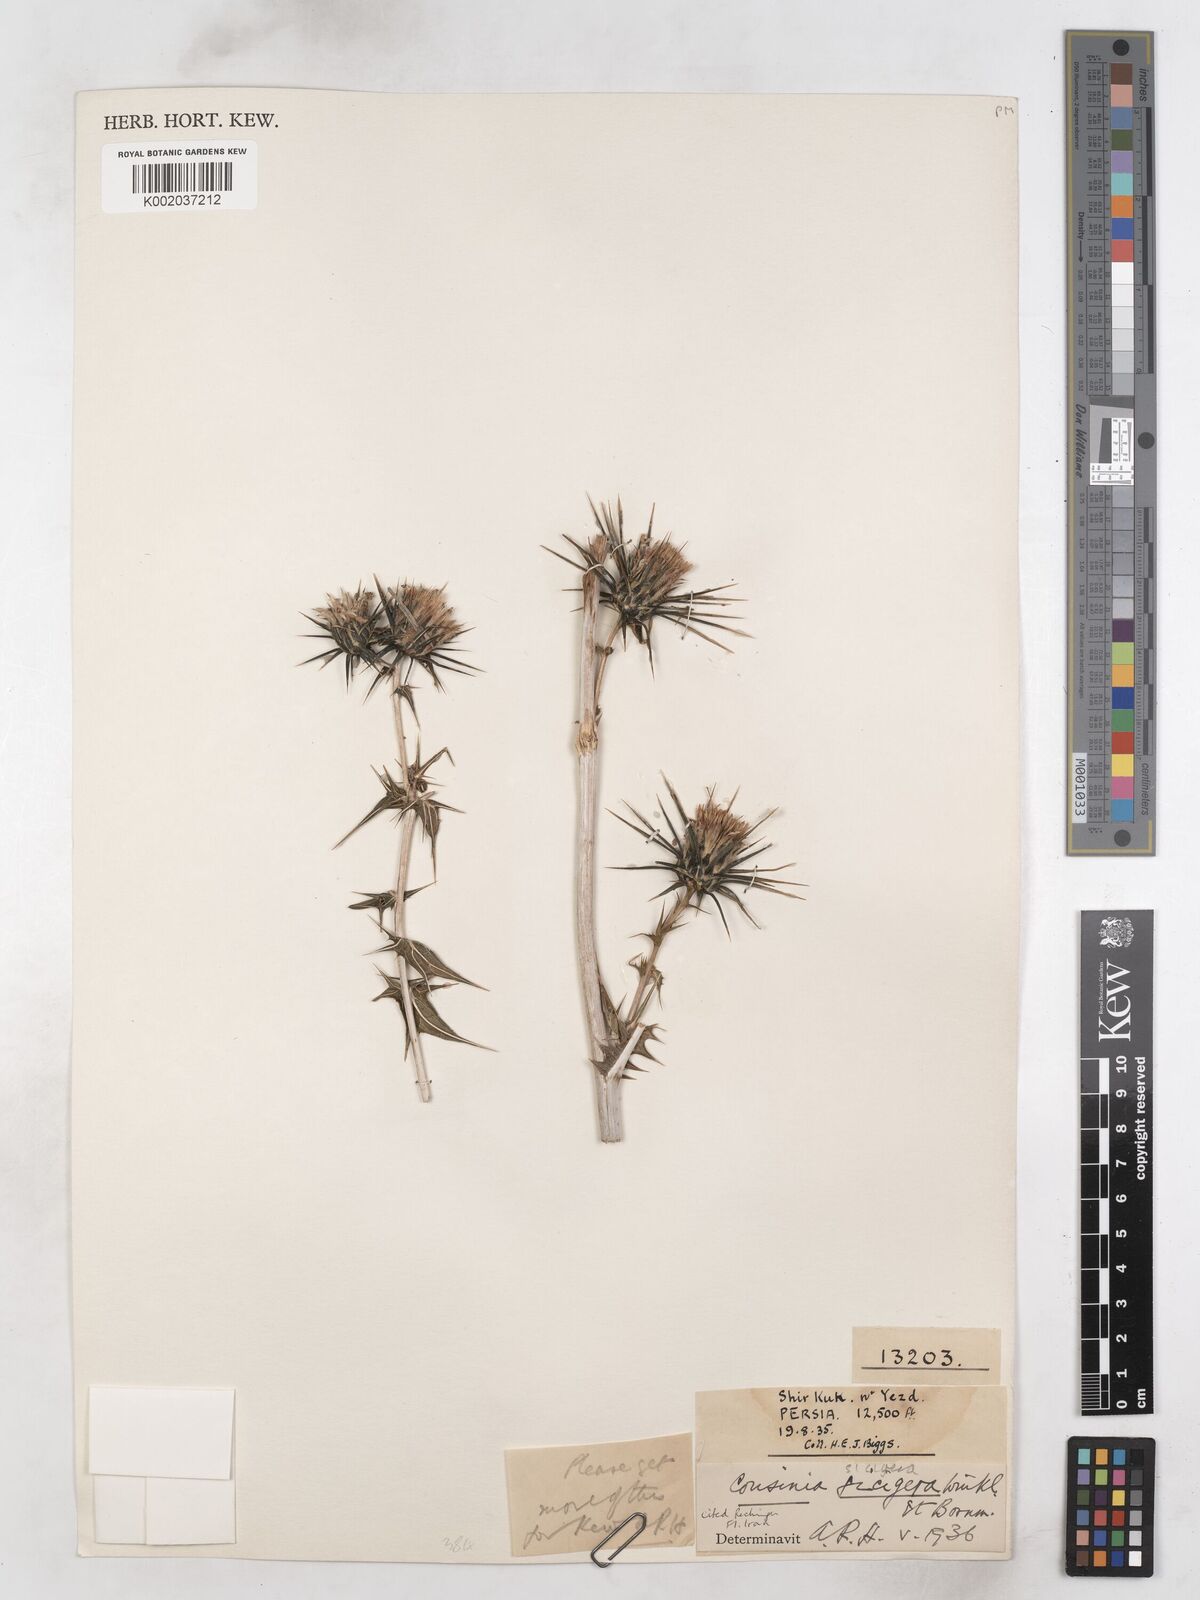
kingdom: Plantae
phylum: Tracheophyta
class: Magnoliopsida
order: Asterales
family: Asteraceae
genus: Cousinia
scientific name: Cousinia sicigera
